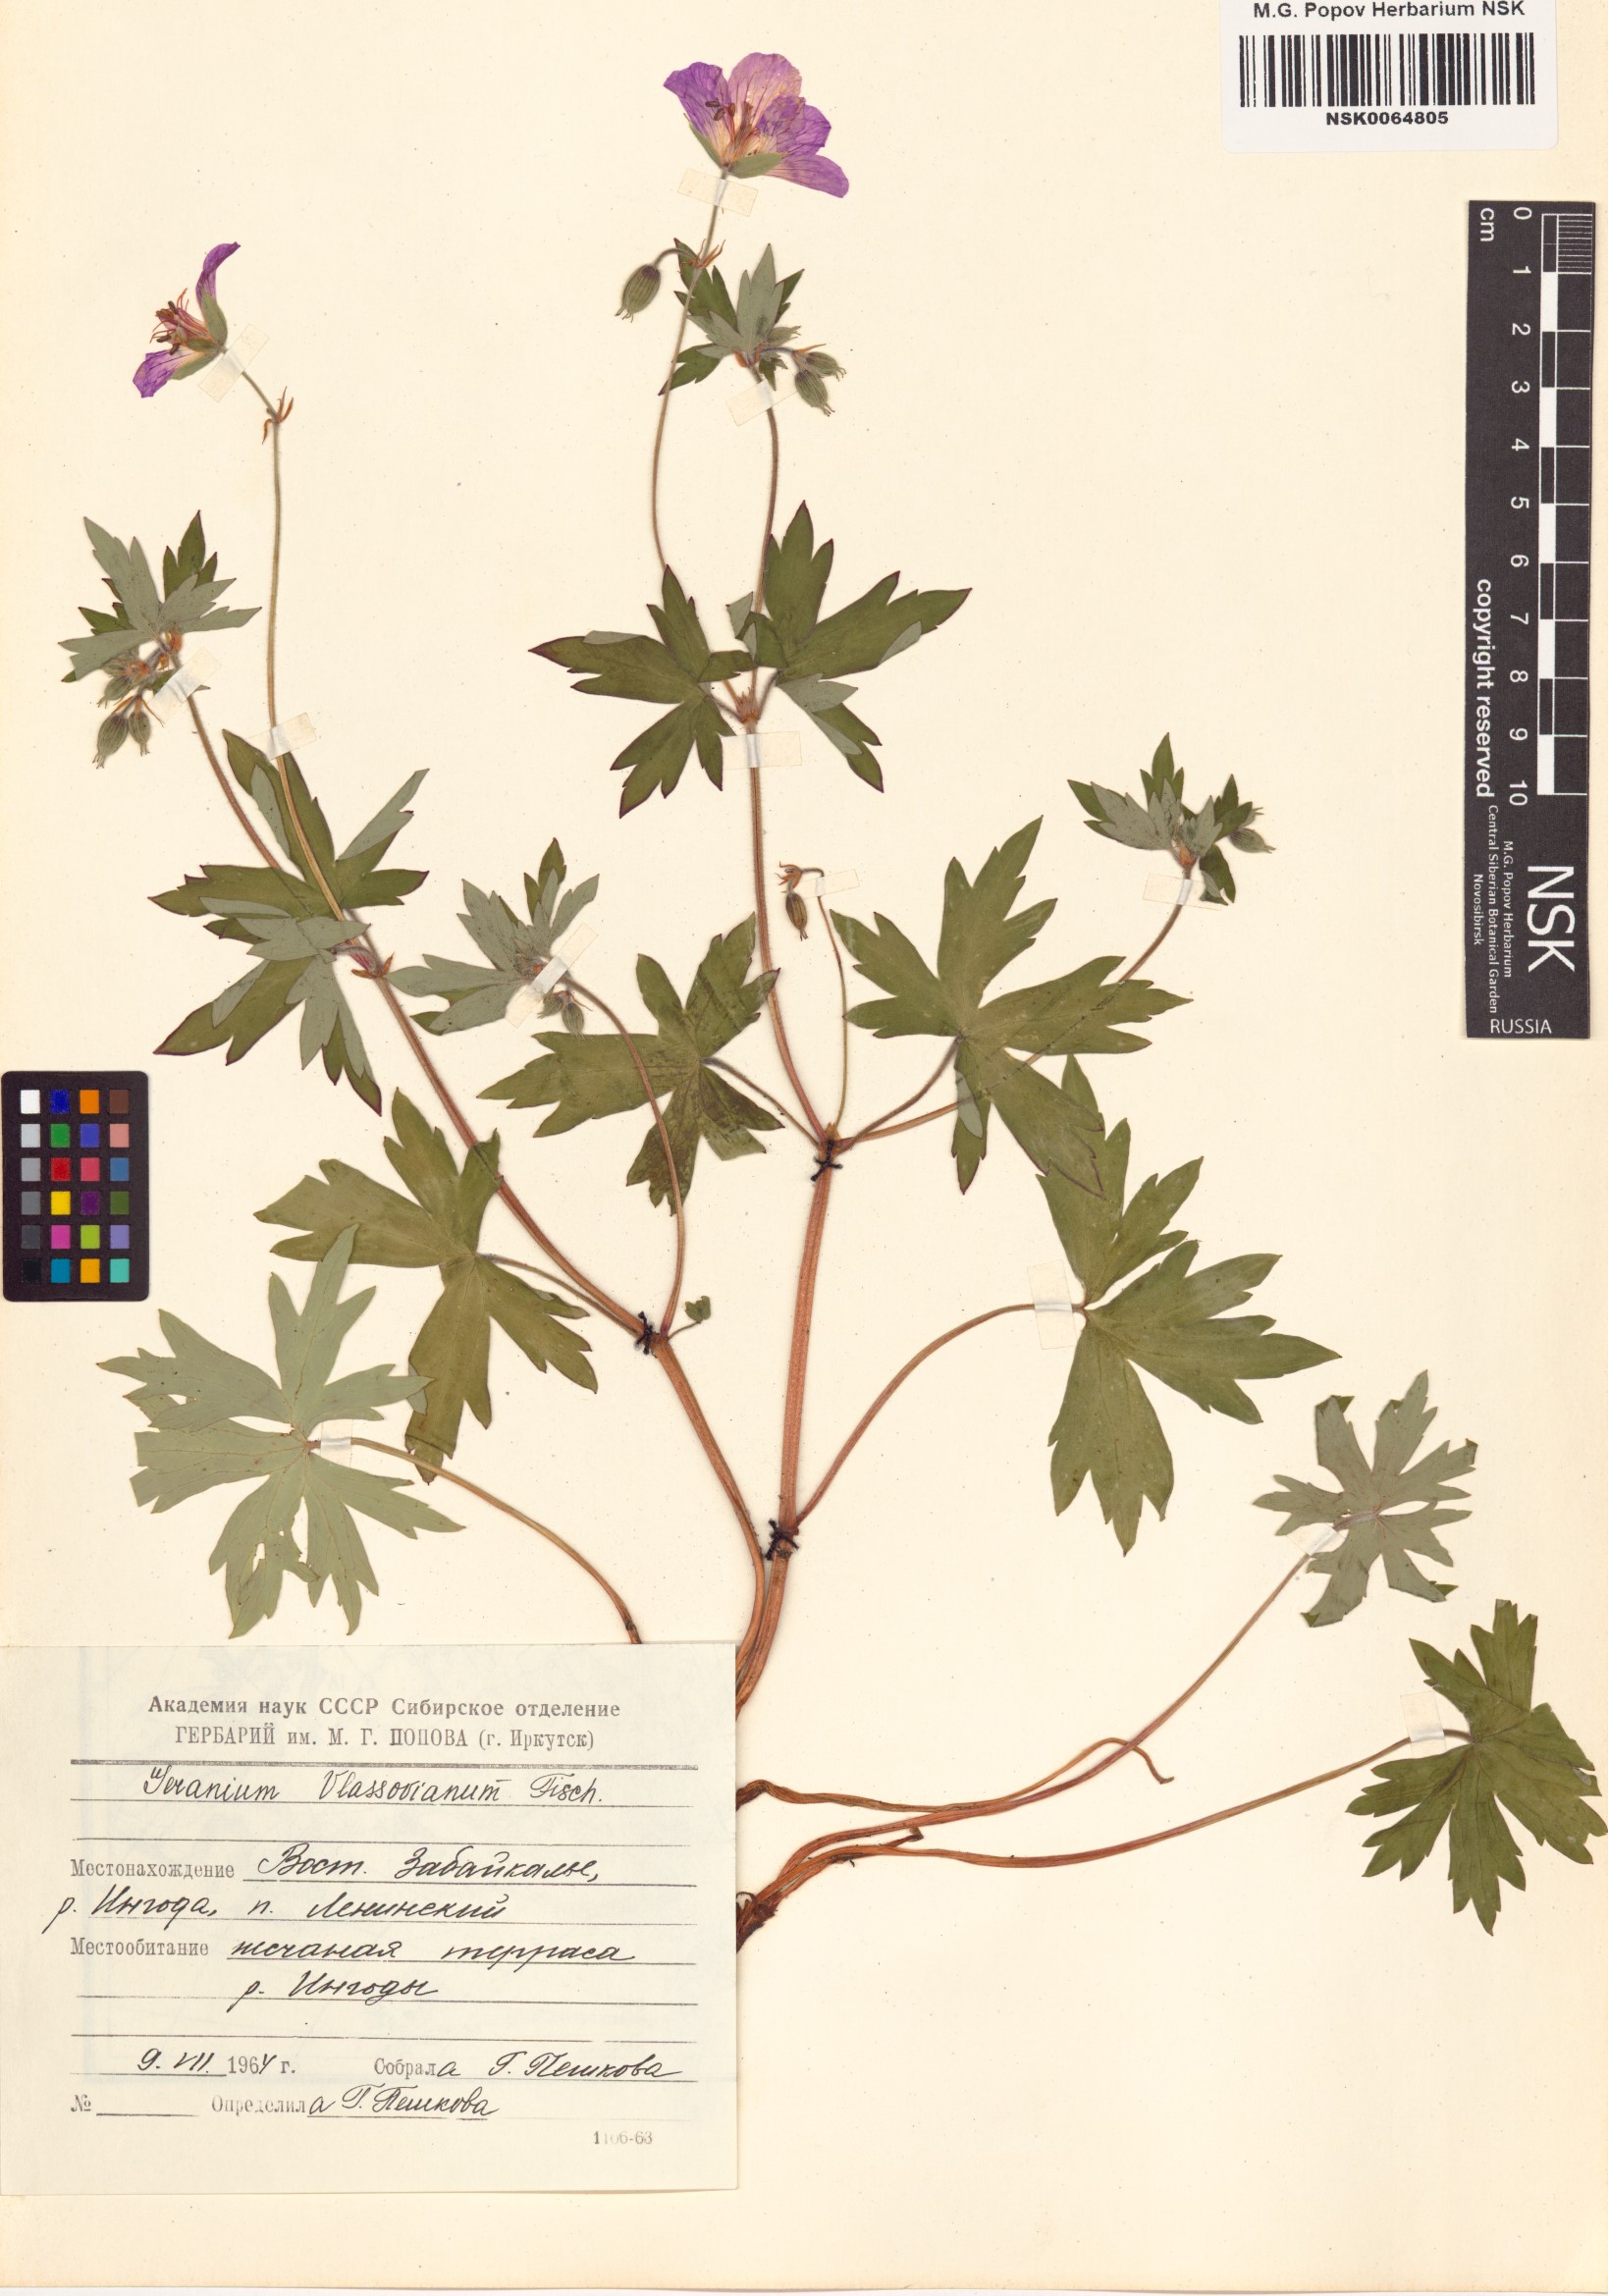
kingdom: Plantae
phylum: Tracheophyta
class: Magnoliopsida
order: Geraniales
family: Geraniaceae
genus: Geranium
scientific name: Geranium wlassovianum
